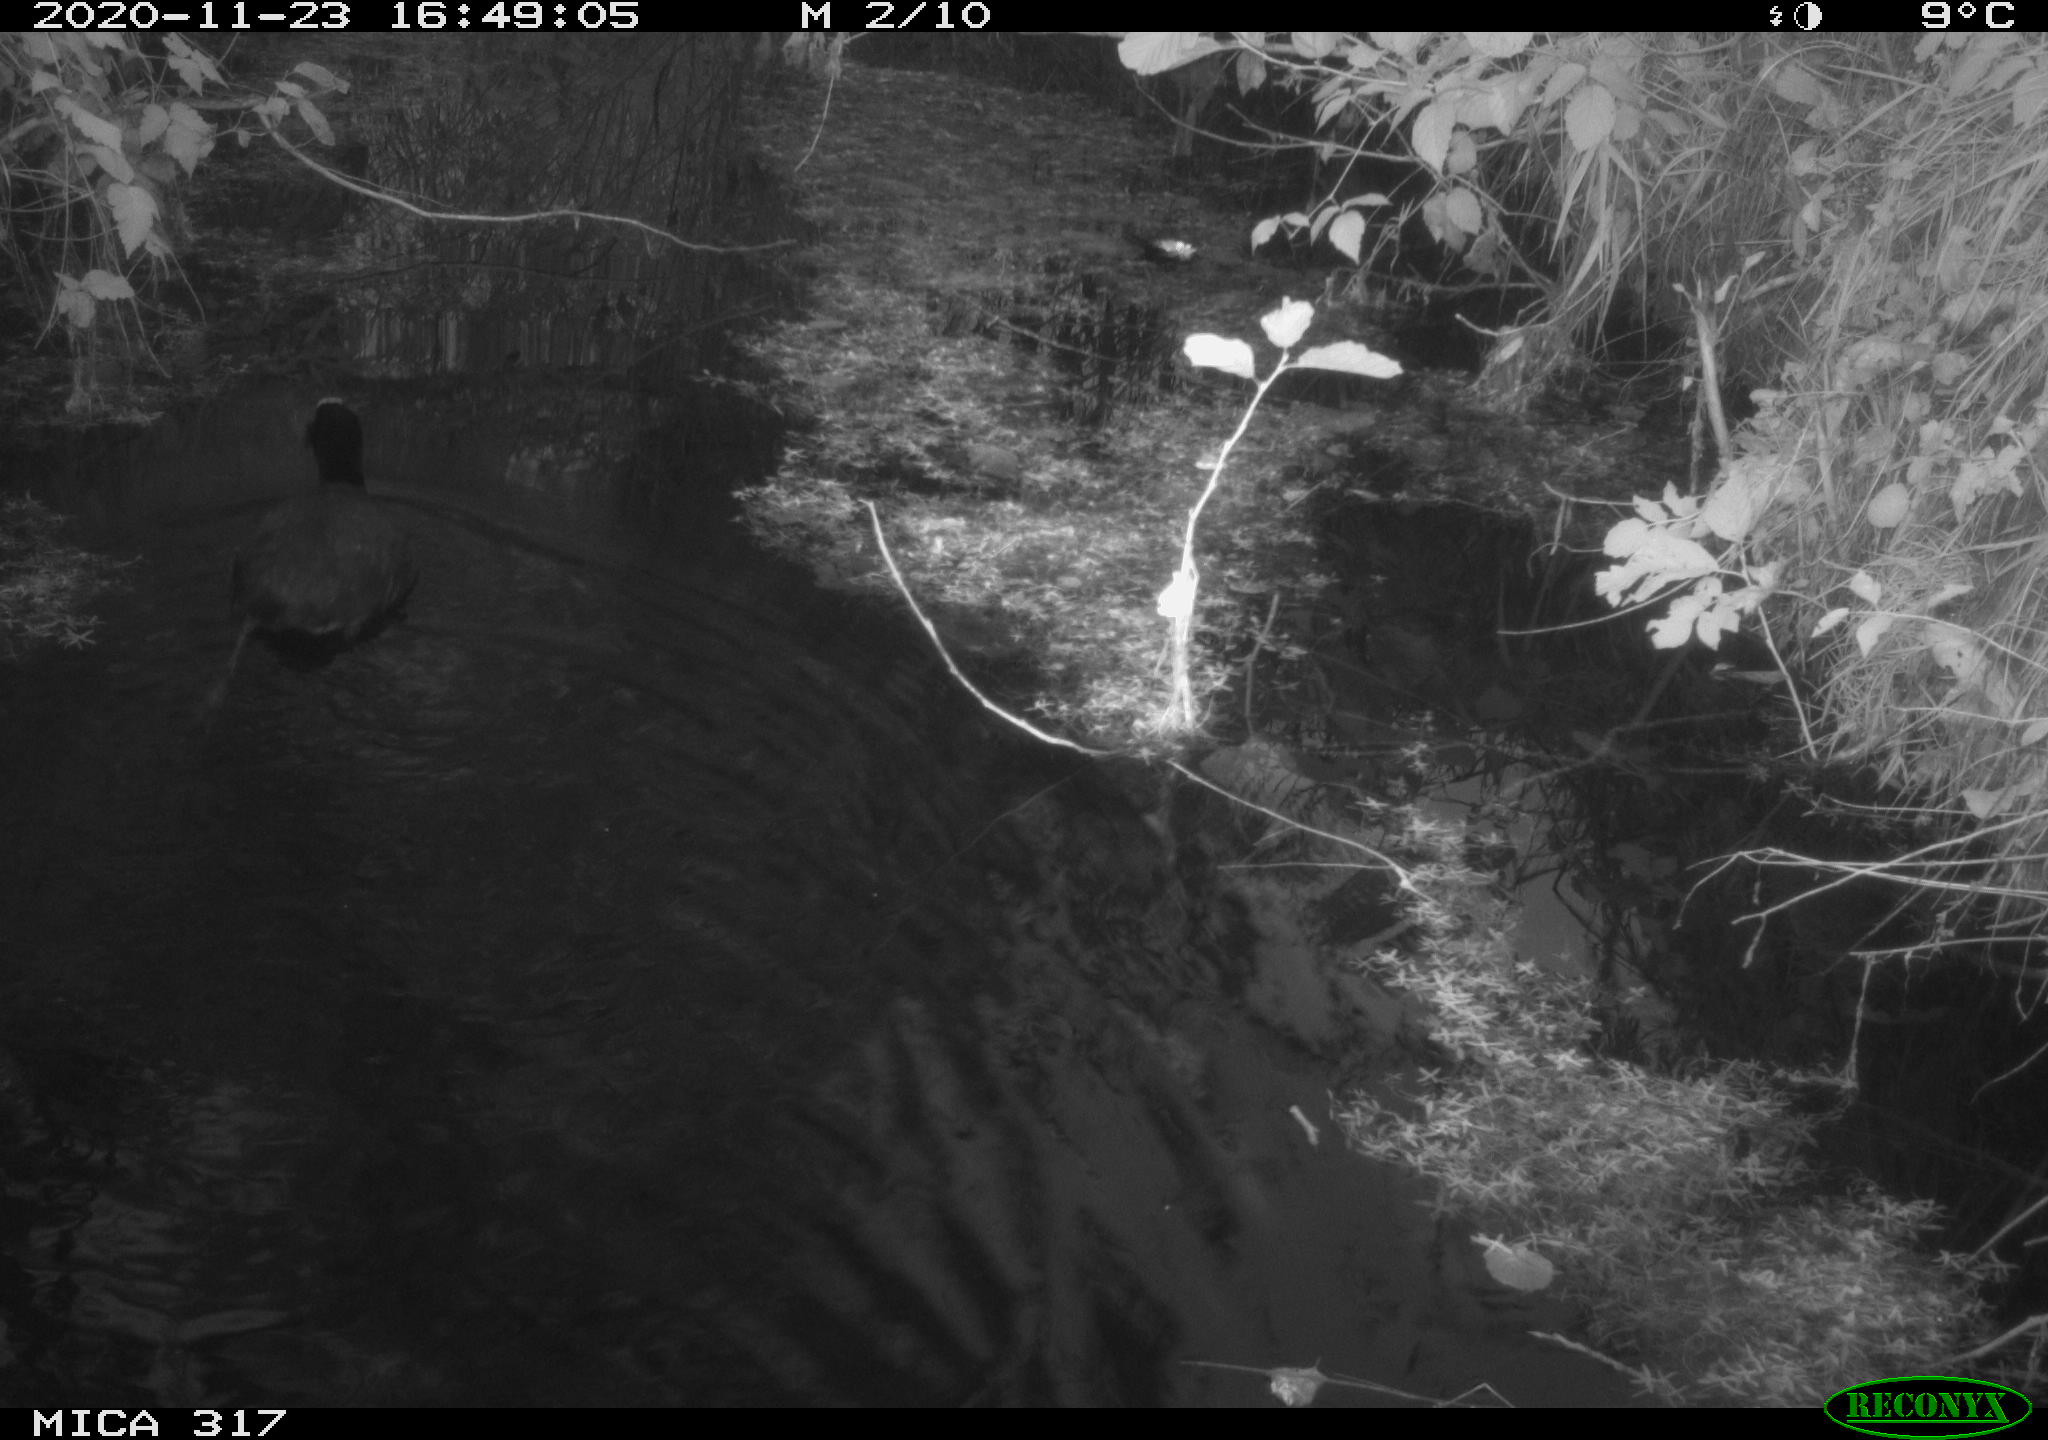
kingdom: Animalia
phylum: Chordata
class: Aves
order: Gruiformes
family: Rallidae
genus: Fulica
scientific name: Fulica atra
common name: Eurasian coot
